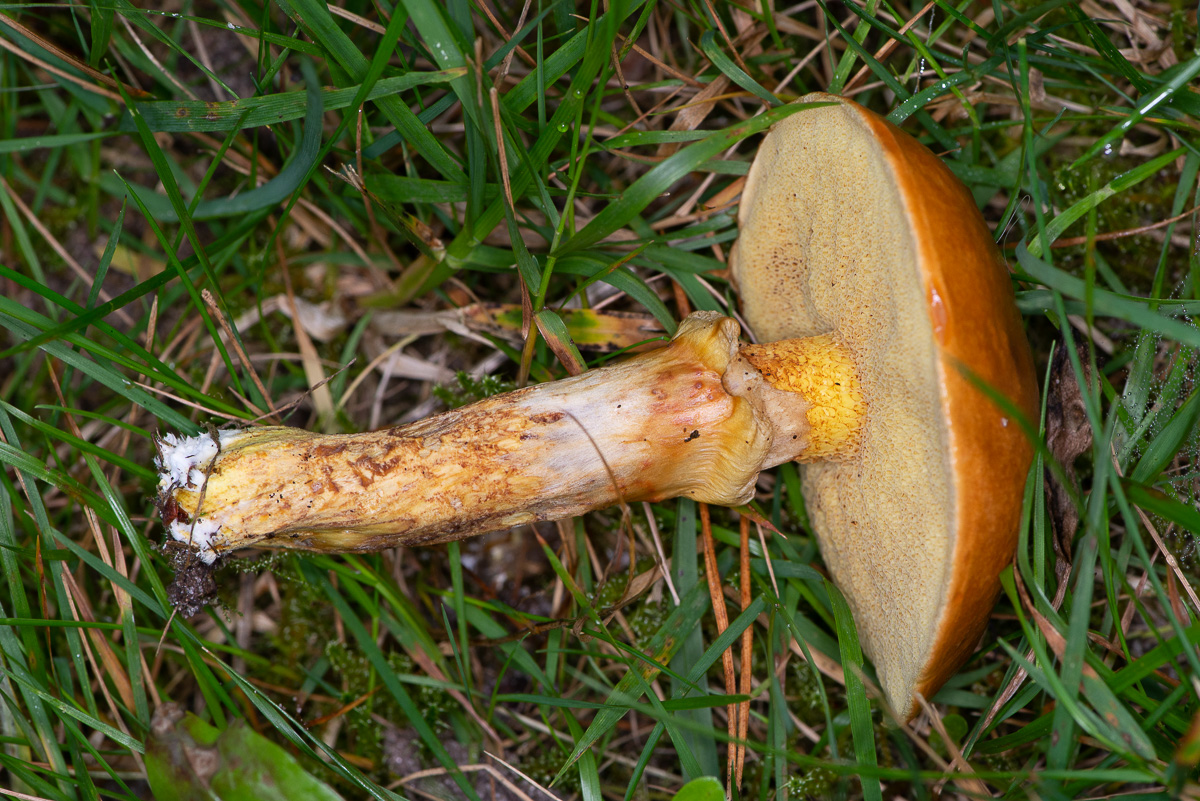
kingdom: Fungi
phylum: Basidiomycota
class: Agaricomycetes
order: Boletales
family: Suillaceae
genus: Suillus
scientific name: Suillus grevillei
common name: lærke-slimrørhat
